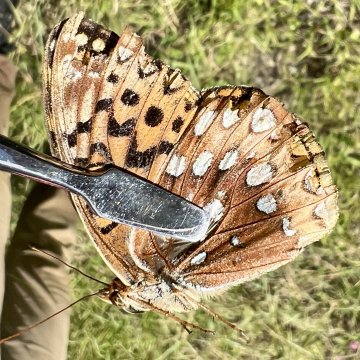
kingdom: Animalia
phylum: Arthropoda
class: Insecta
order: Lepidoptera
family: Nymphalidae
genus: Speyeria
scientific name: Speyeria cybele
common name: Great Spangled Fritillary
